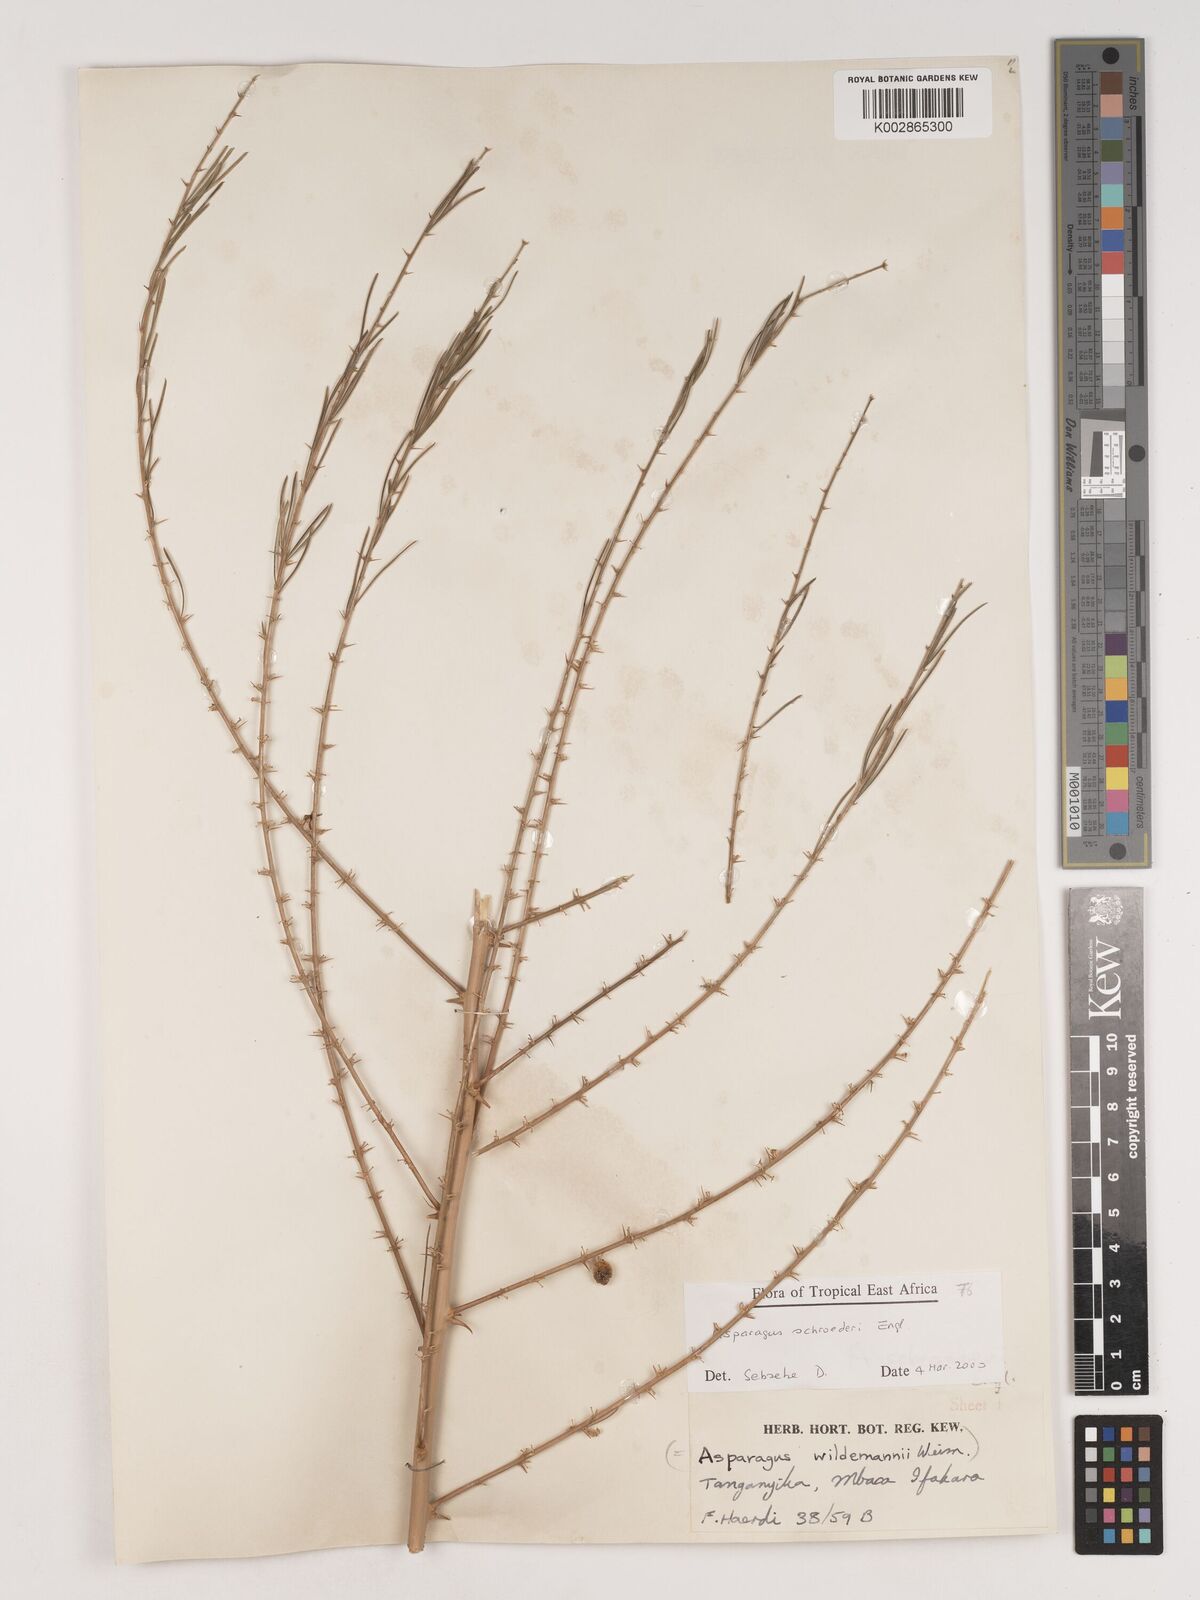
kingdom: Plantae
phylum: Tracheophyta
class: Liliopsida
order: Asparagales
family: Asparagaceae
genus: Asparagus
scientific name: Asparagus schroederi
